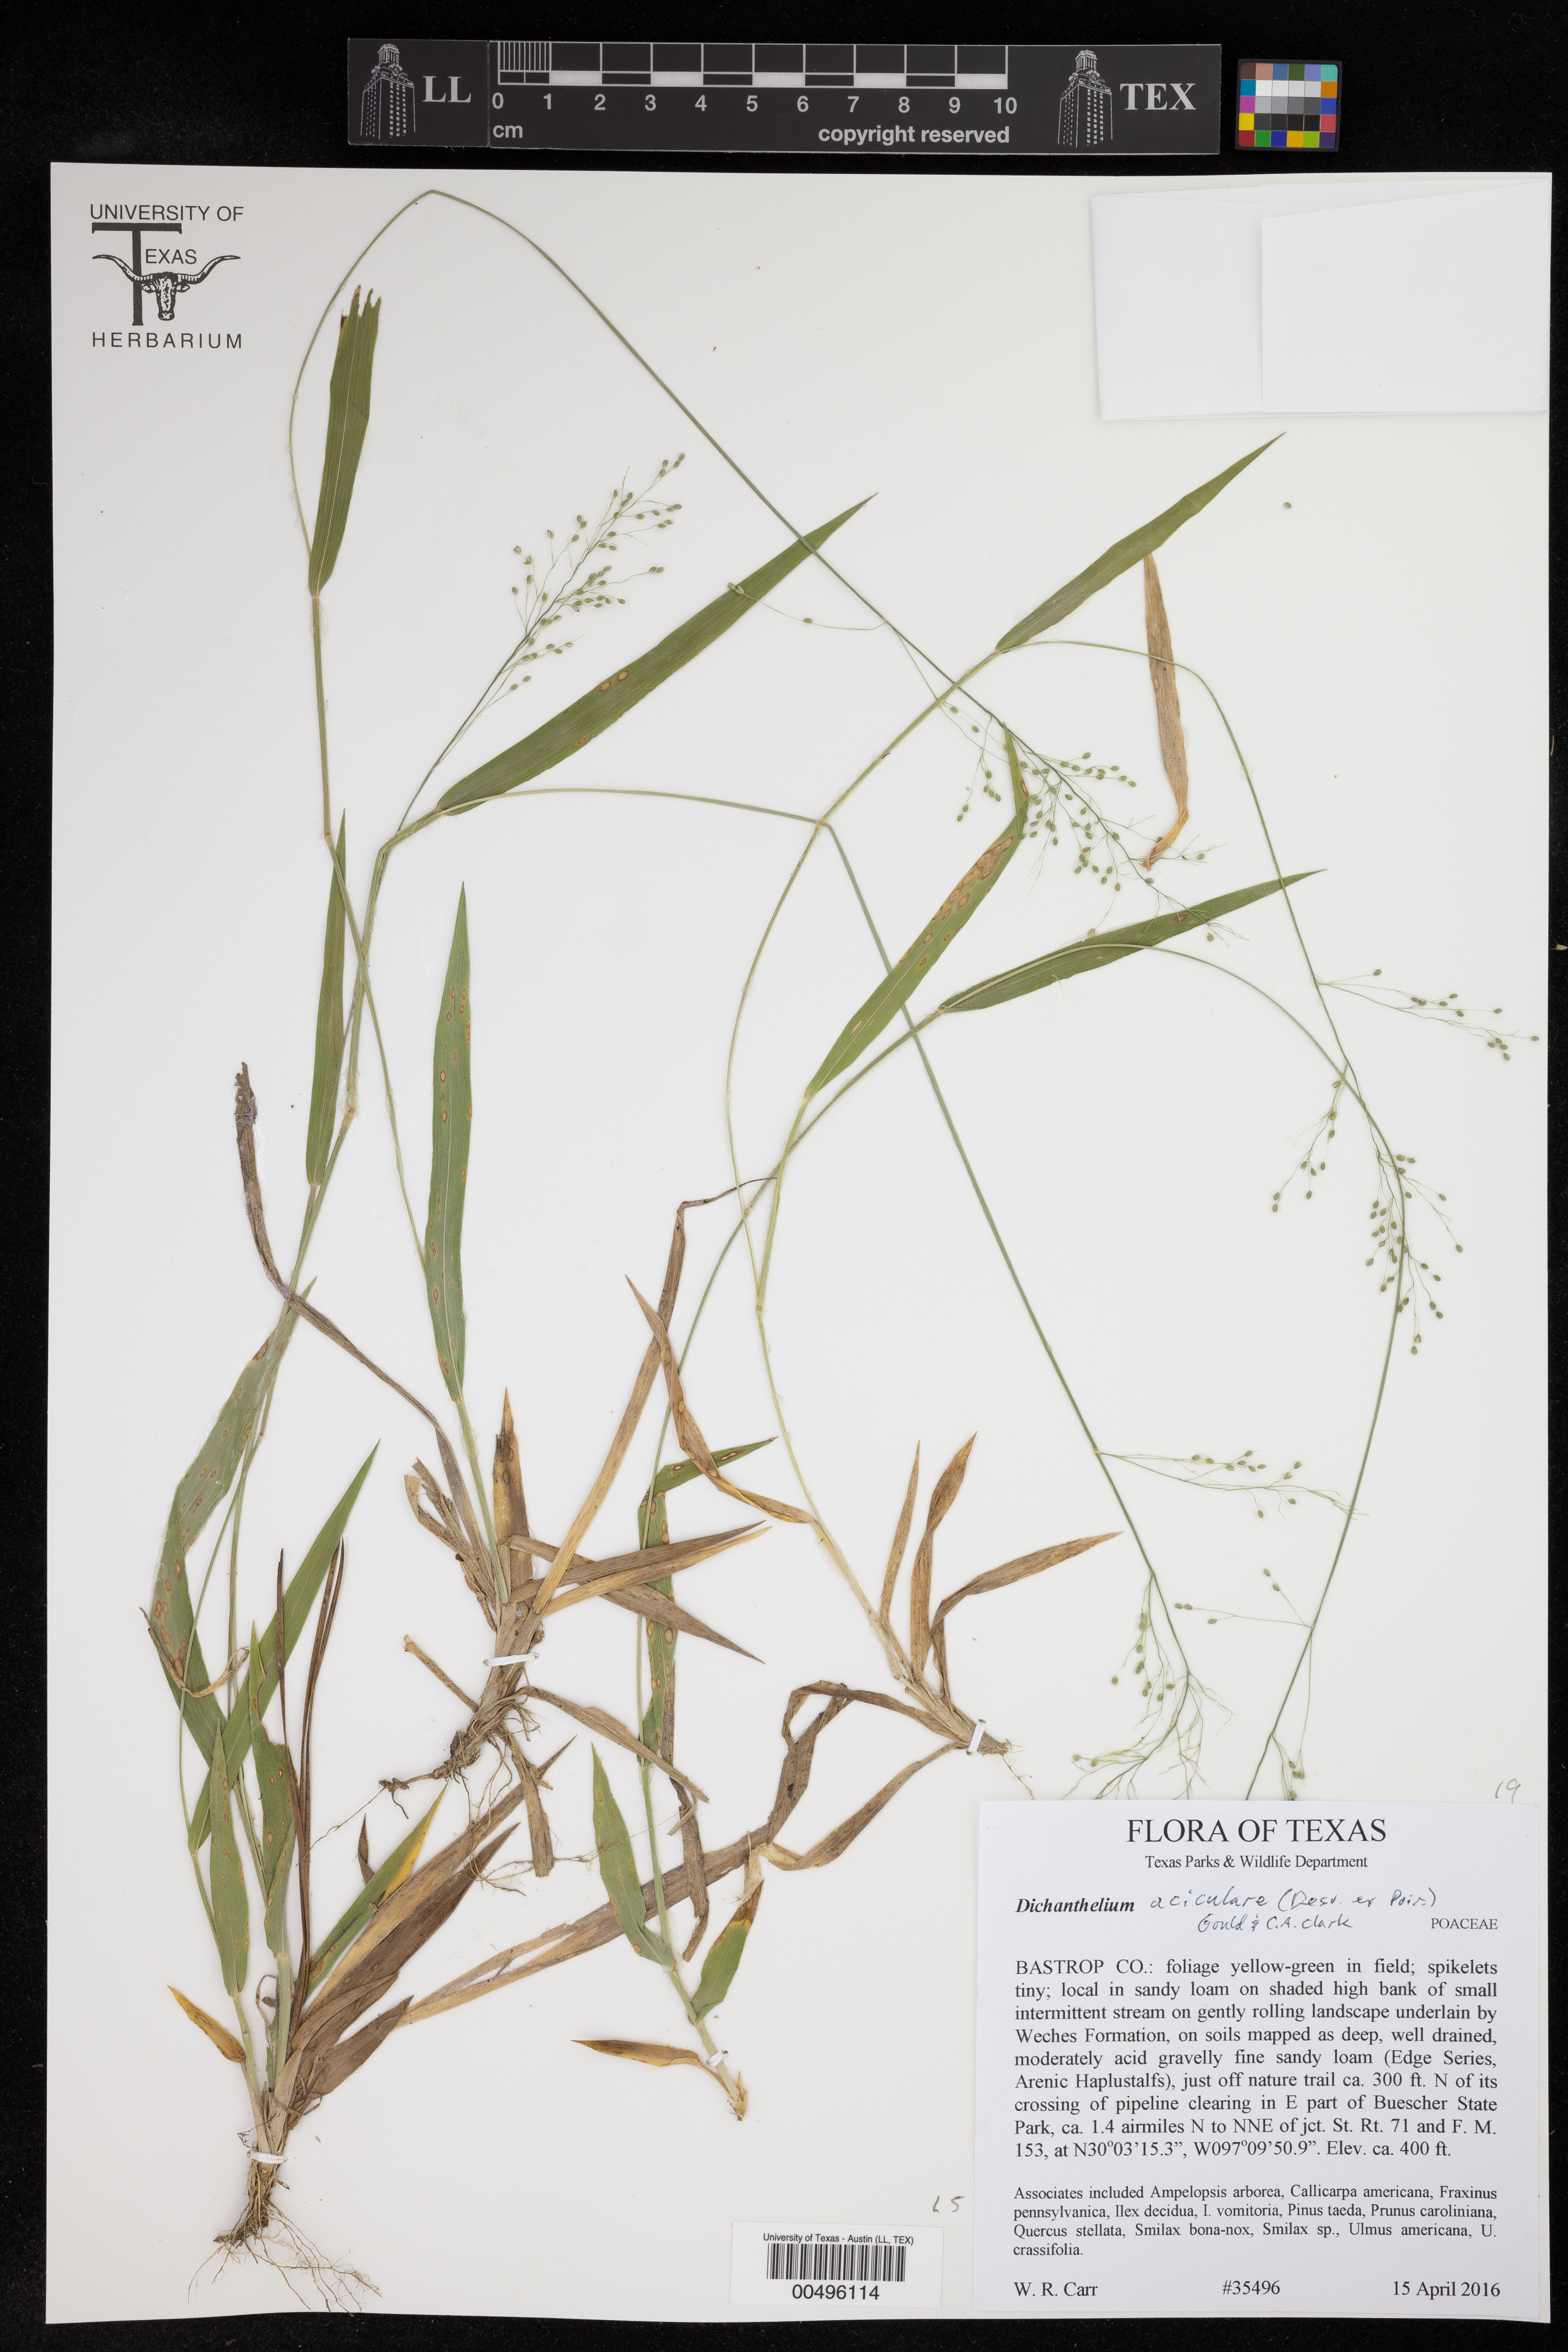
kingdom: Plantae
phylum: Tracheophyta
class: Liliopsida
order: Poales
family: Poaceae
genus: Dichanthelium
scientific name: Dichanthelium aciculare
